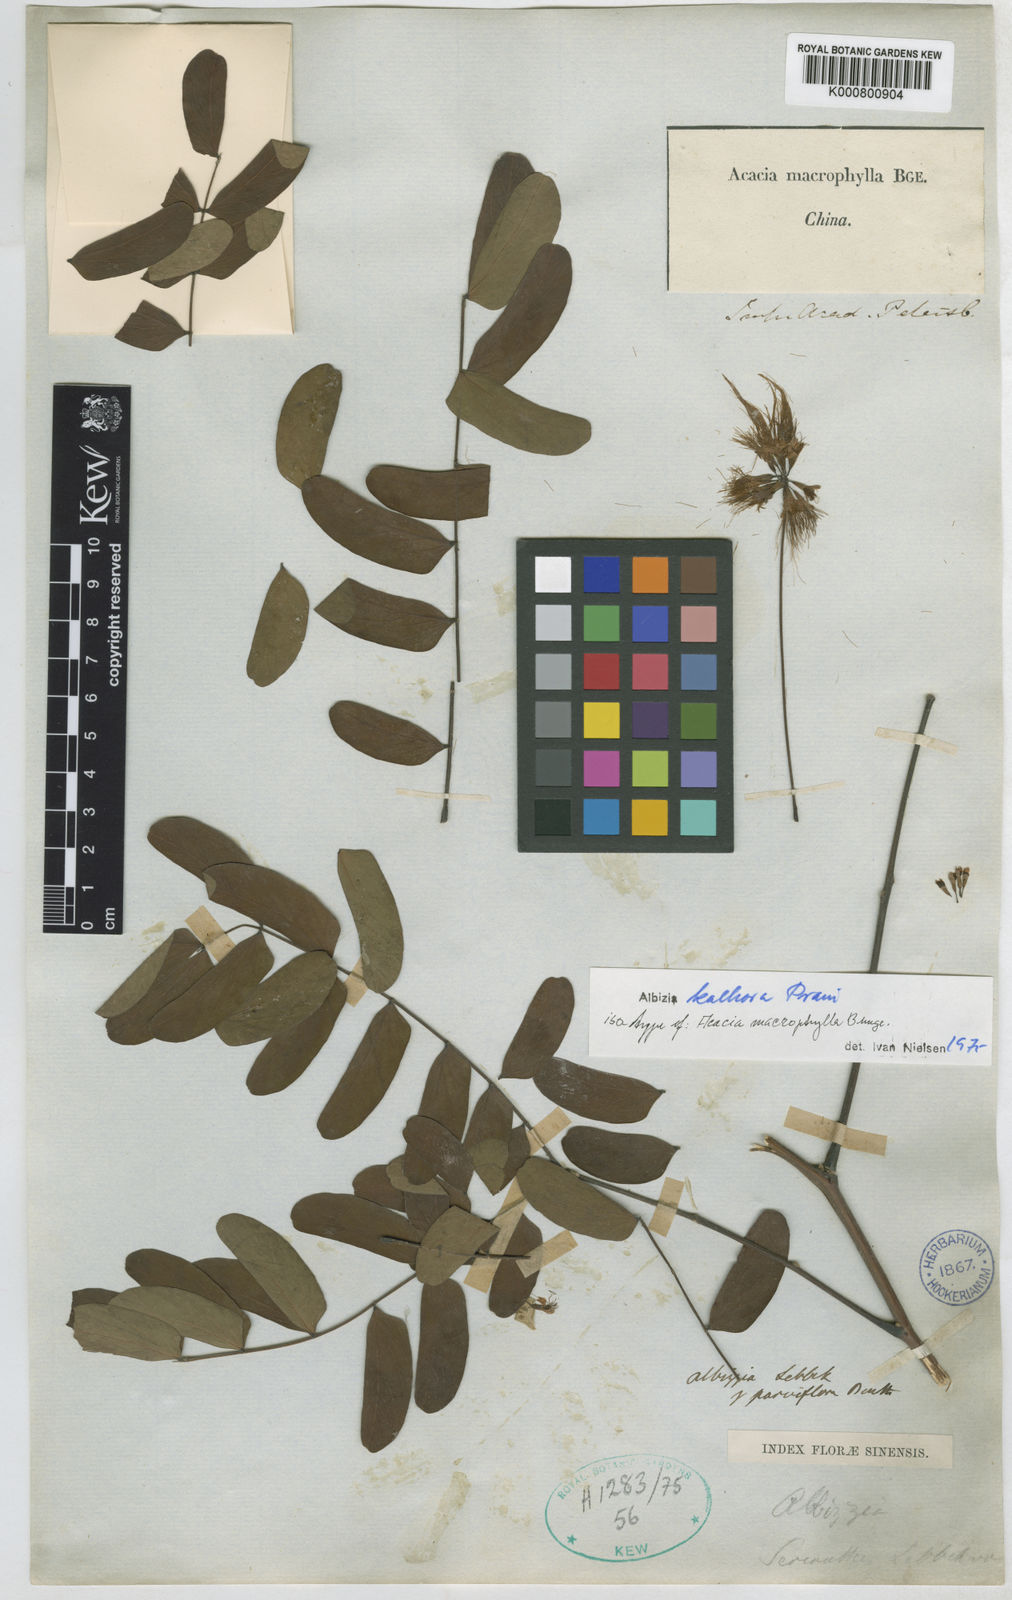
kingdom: Plantae
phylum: Tracheophyta
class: Magnoliopsida
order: Fabales
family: Fabaceae
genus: Albizia
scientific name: Albizia
